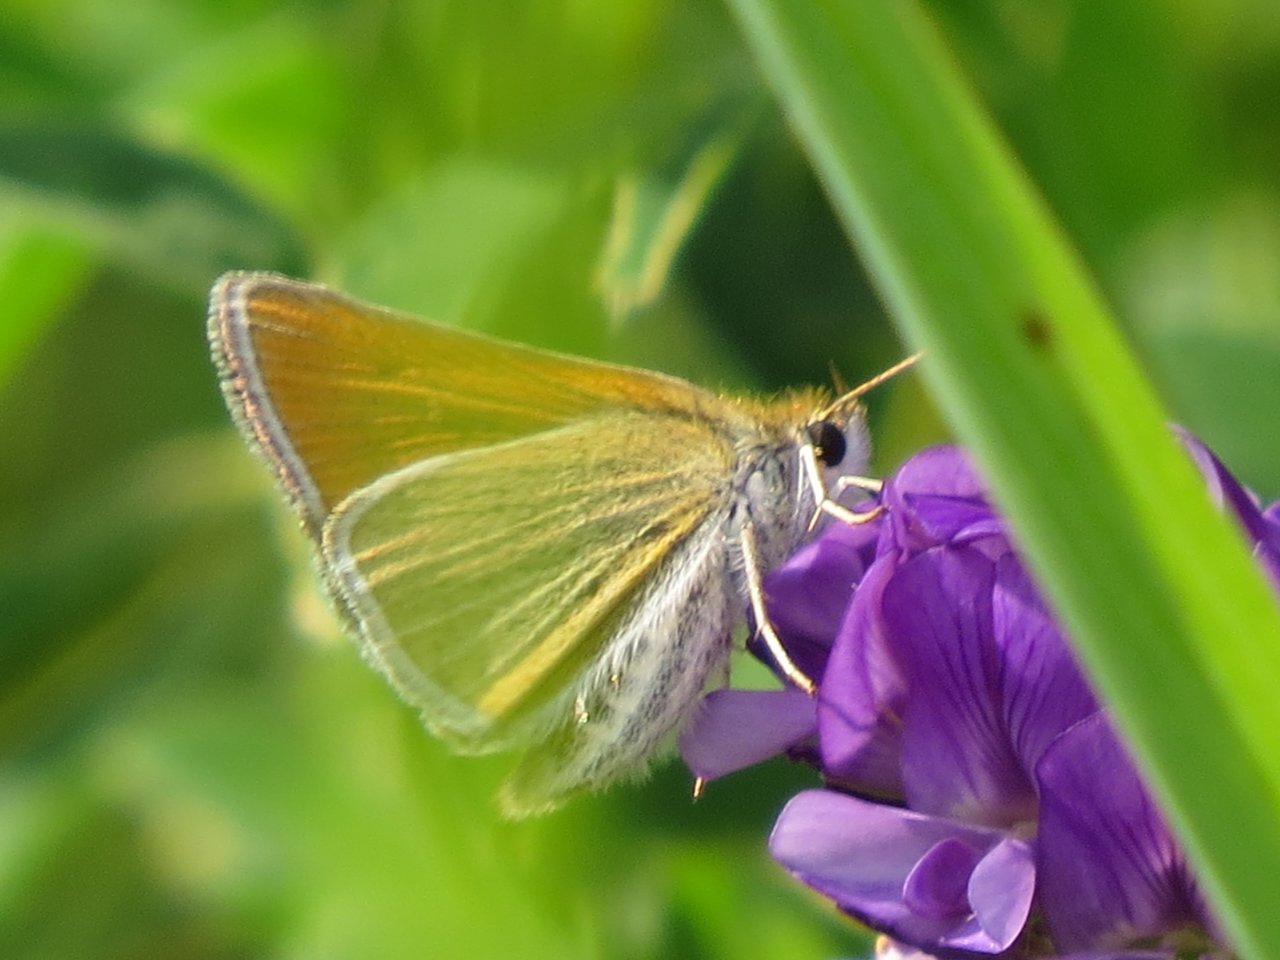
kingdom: Animalia
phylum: Arthropoda
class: Insecta
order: Lepidoptera
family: Hesperiidae
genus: Oarisma
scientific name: Oarisma garita
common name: Garita Skipperling
